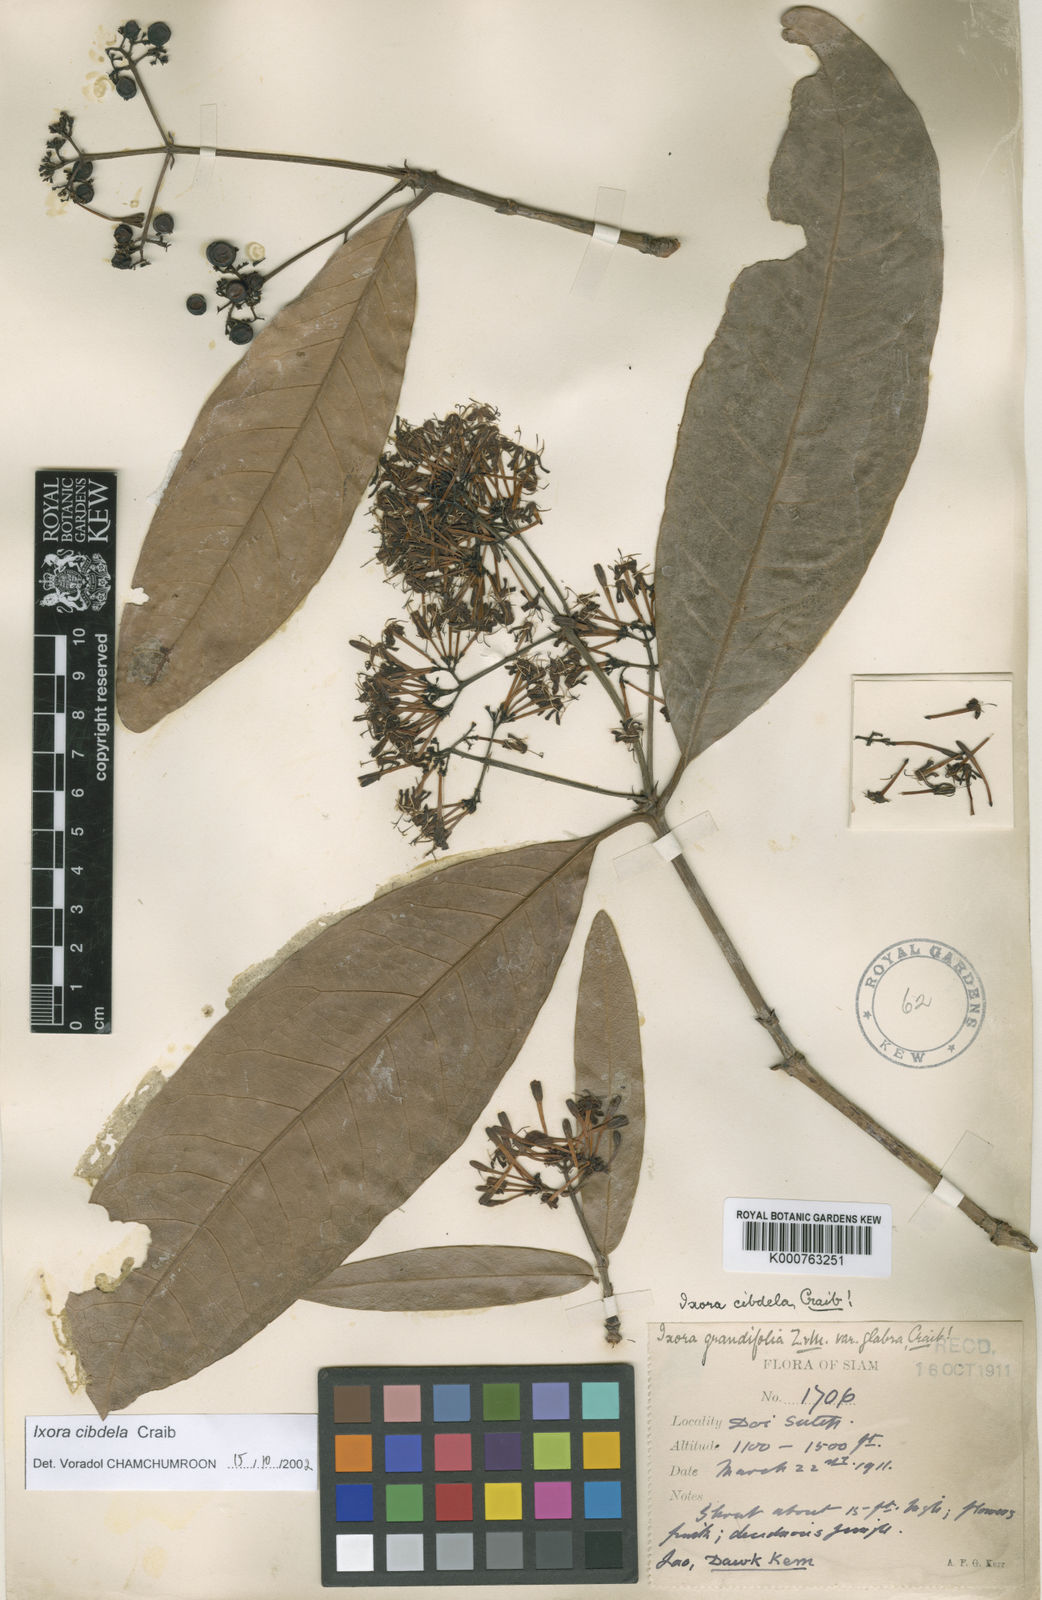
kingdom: Plantae
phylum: Tracheophyta
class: Magnoliopsida
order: Gentianales
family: Rubiaceae
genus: Ixora
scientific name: Ixora cibdela
